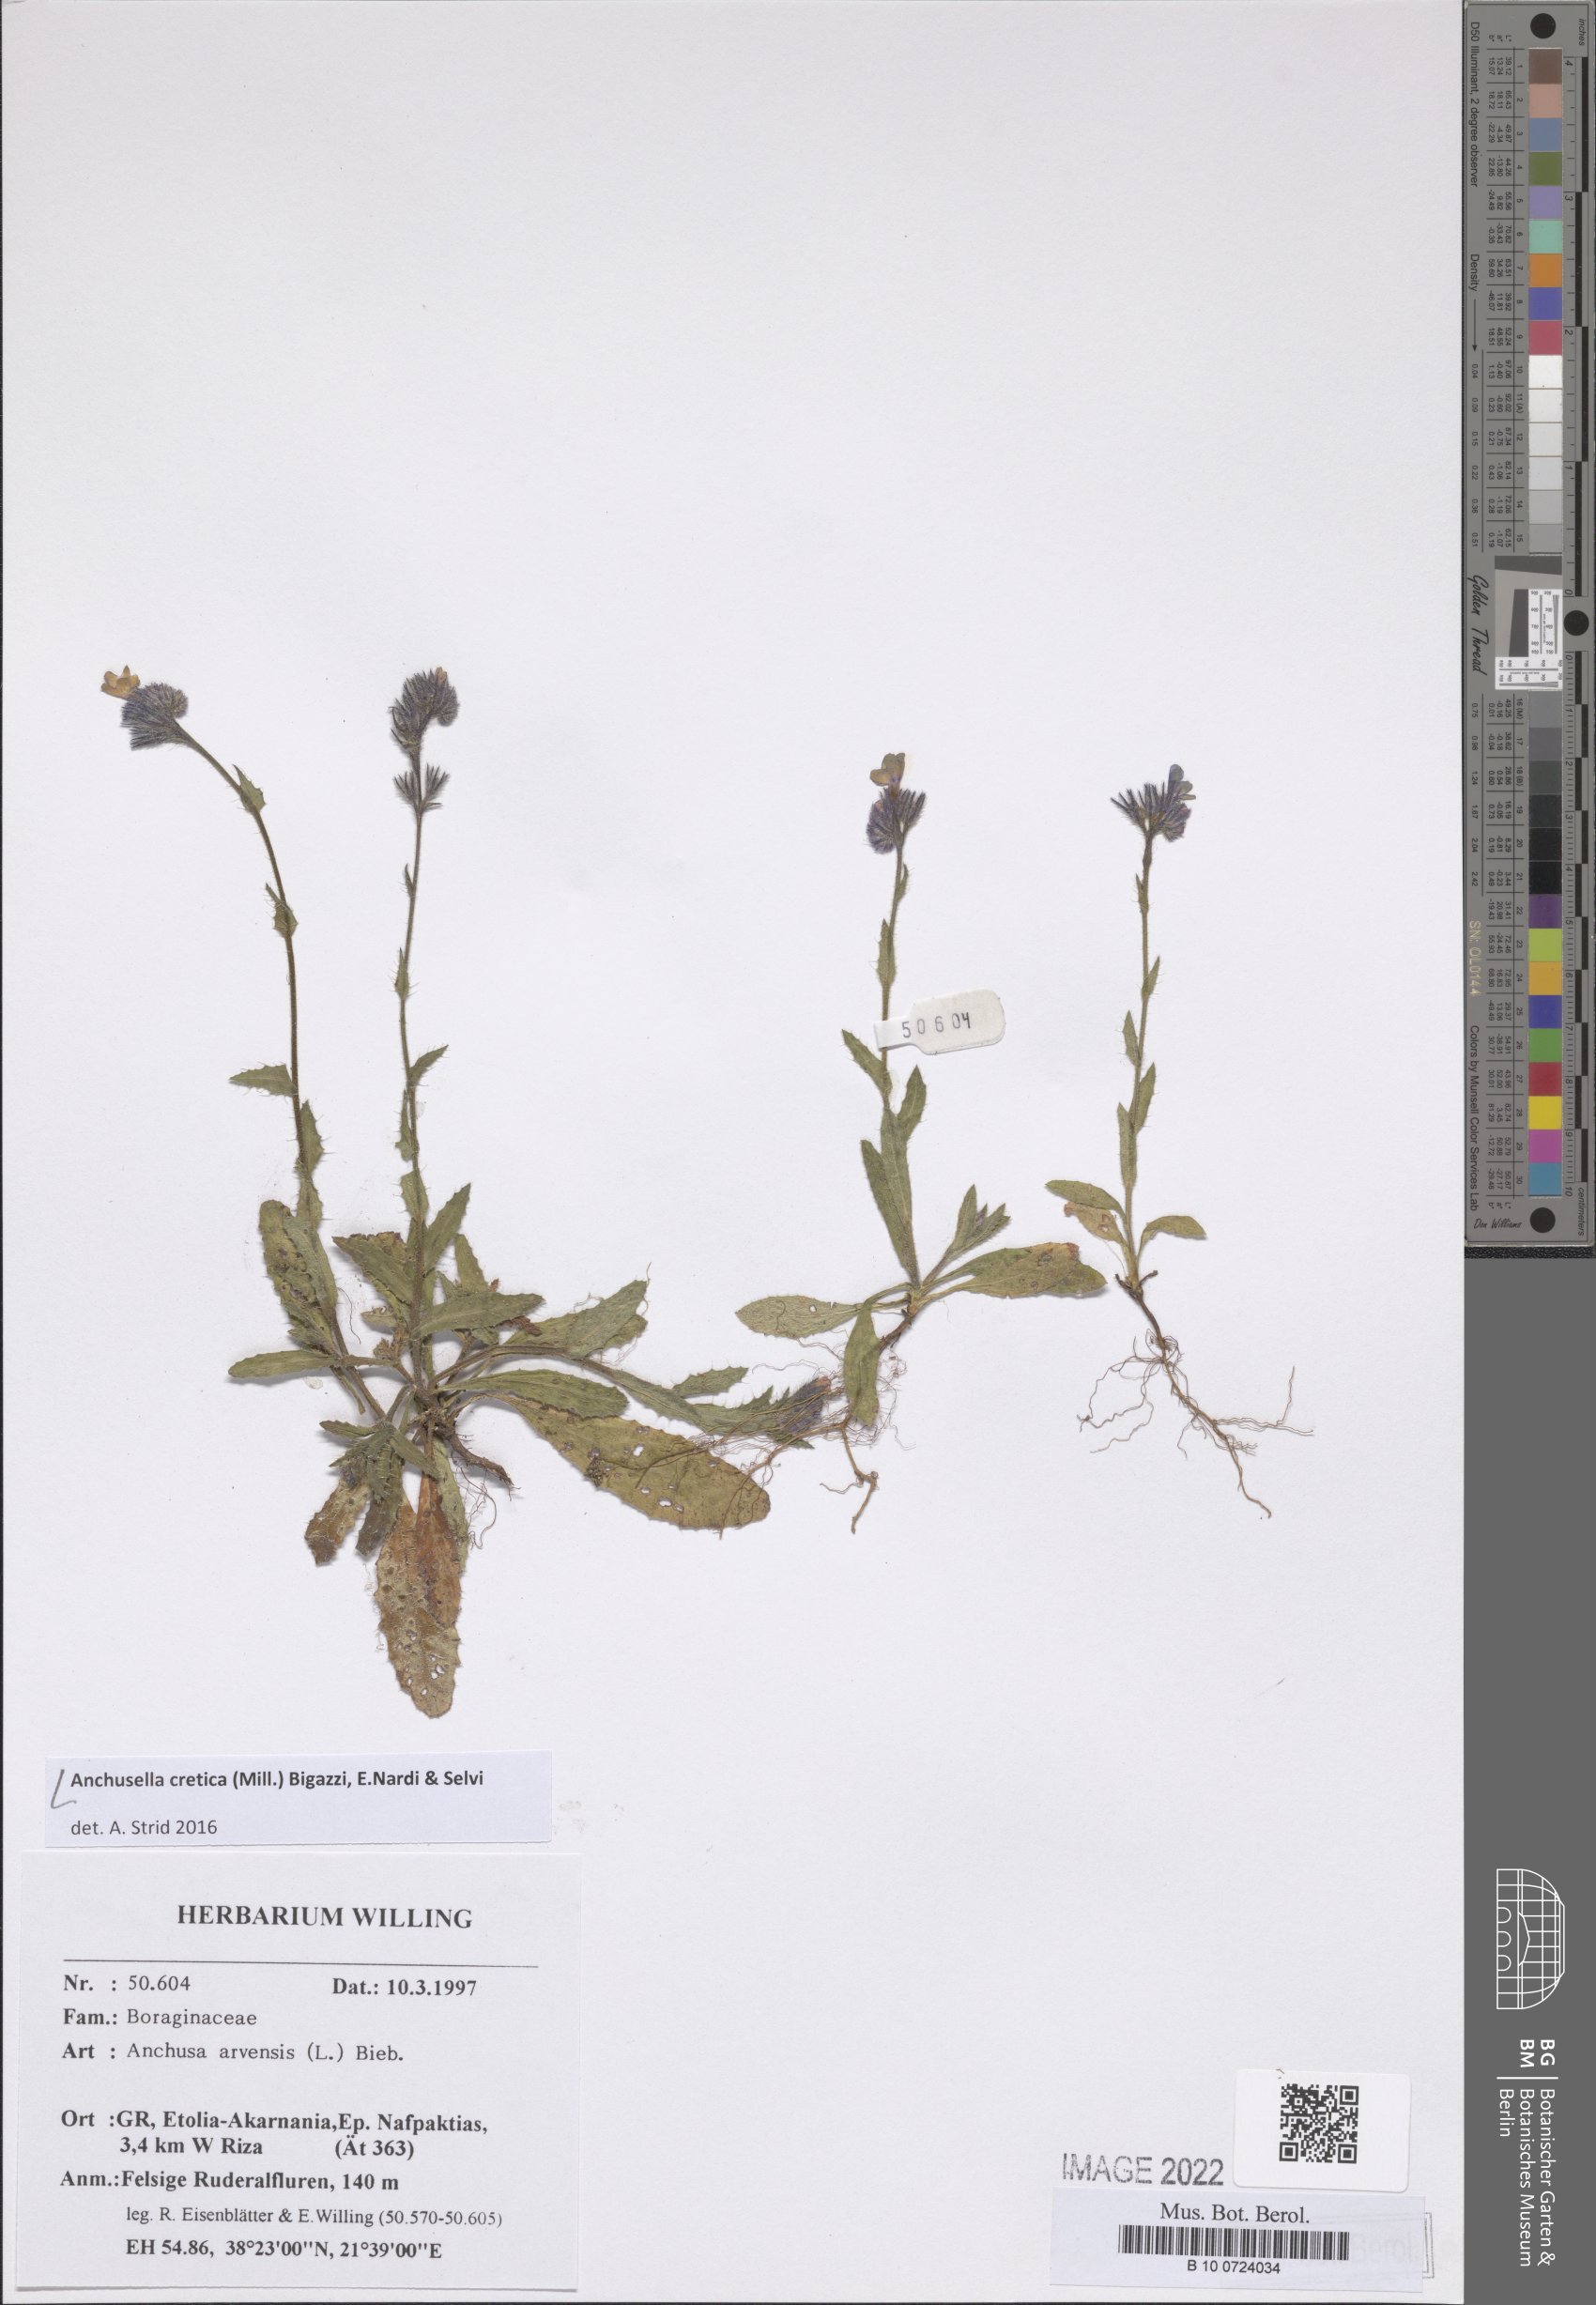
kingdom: Plantae
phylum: Tracheophyta
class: Magnoliopsida
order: Boraginales
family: Boraginaceae
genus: Anchusella
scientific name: Anchusella cretica
